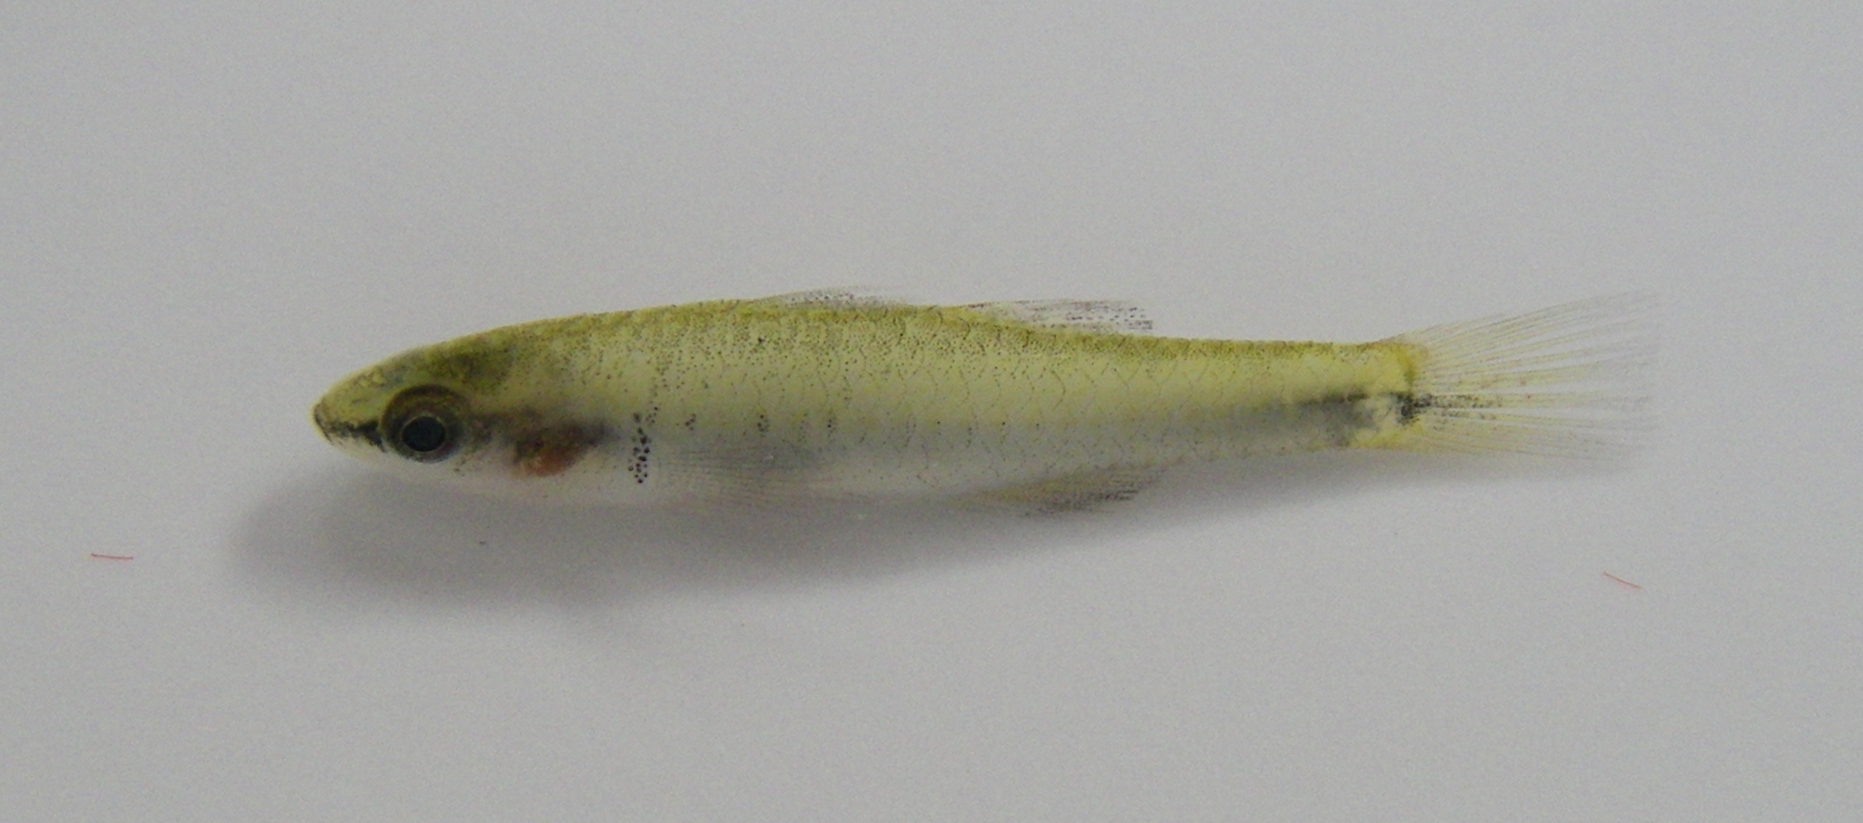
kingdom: Animalia
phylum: Chordata
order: Perciformes
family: Eleotridae
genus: Eleotris
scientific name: Eleotris melanosoma
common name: Broadhead sleeper
